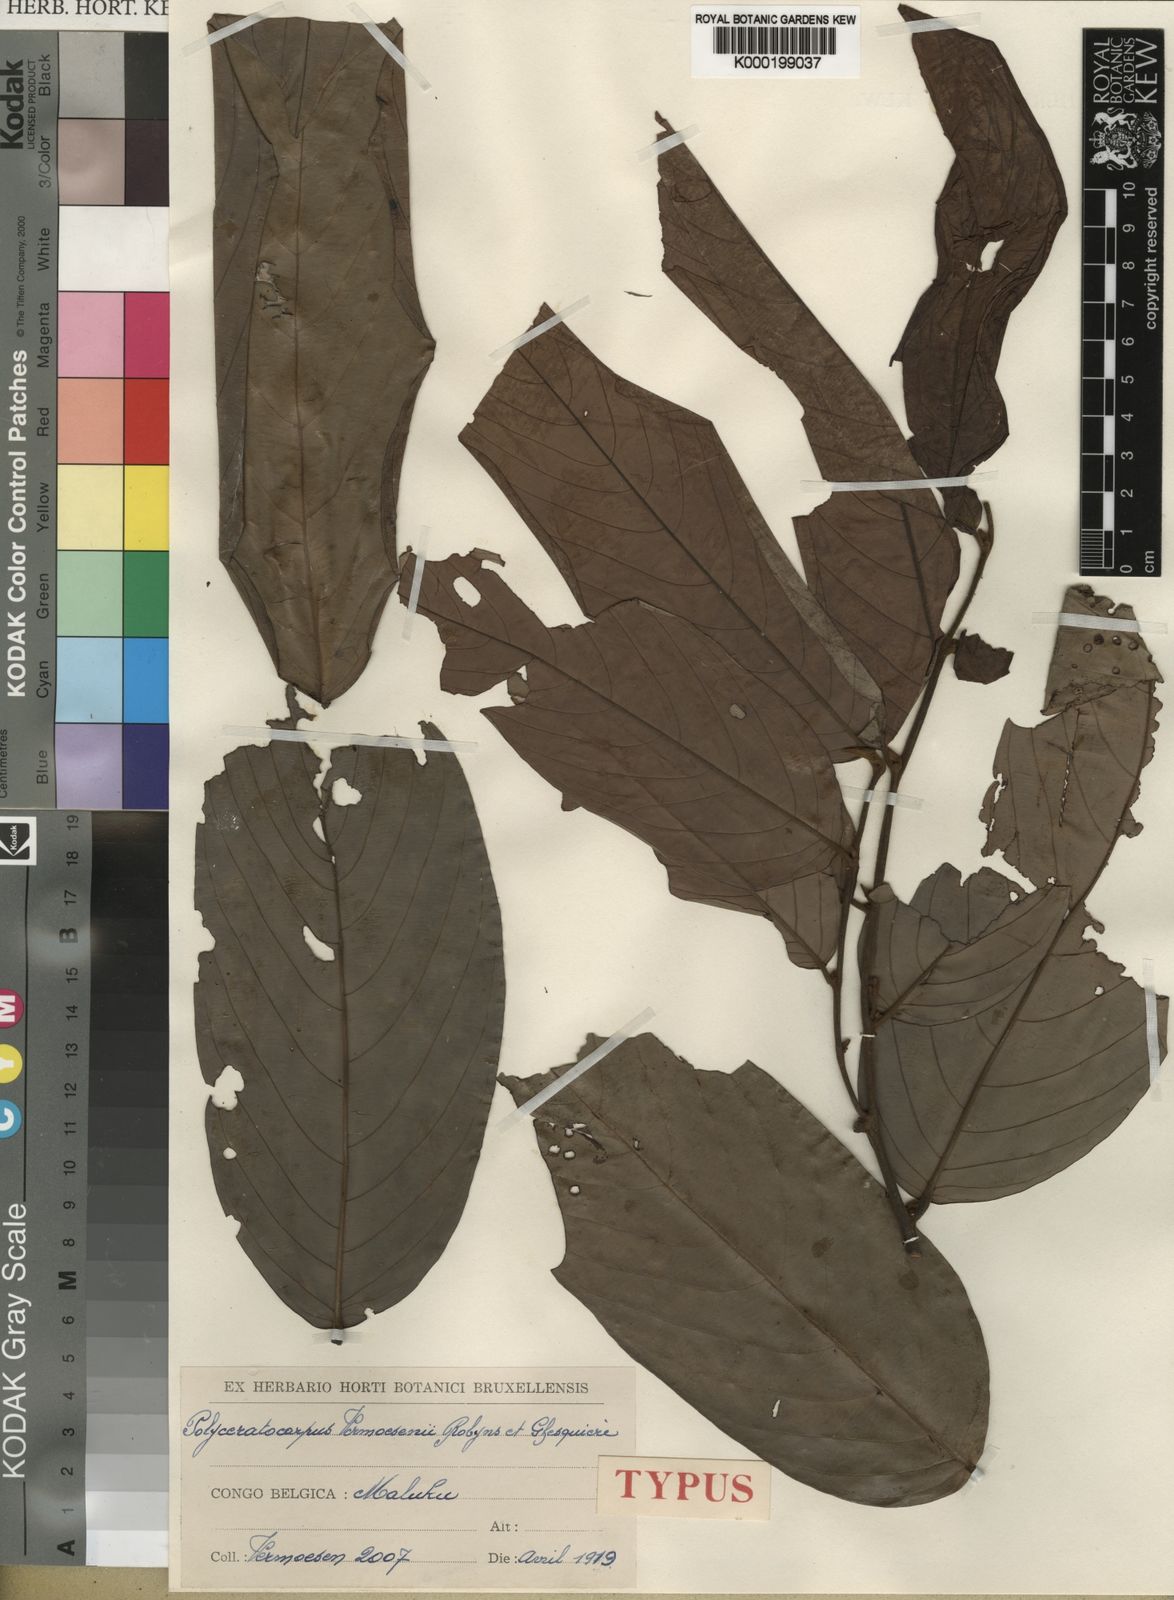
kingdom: Plantae
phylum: Tracheophyta
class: Magnoliopsida
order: Magnoliales
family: Annonaceae
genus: Polyceratocarpus
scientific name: Polyceratocarpus gossweileri
